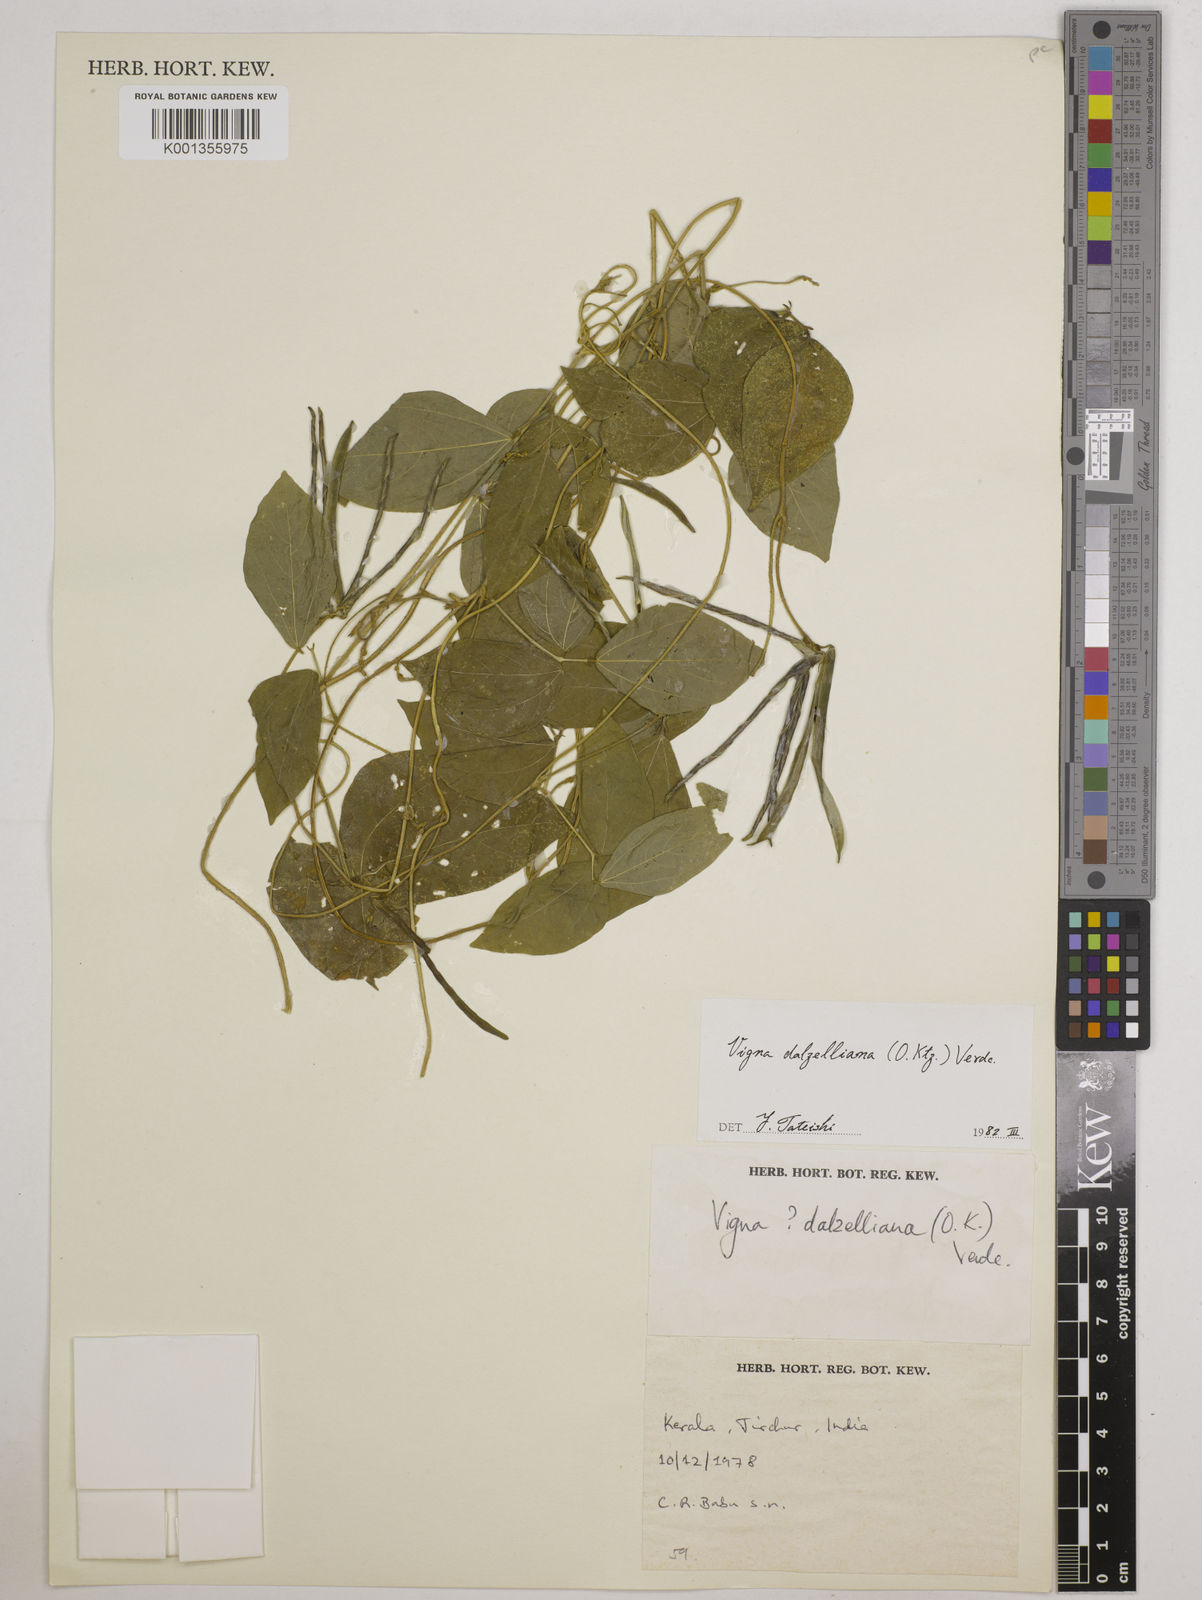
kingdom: Plantae
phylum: Tracheophyta
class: Magnoliopsida
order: Fabales
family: Fabaceae
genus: Vigna
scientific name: Vigna dalzelliana
